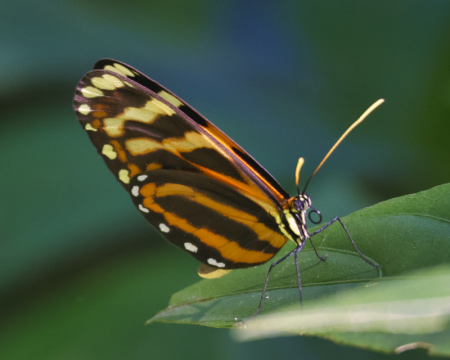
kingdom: Animalia
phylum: Arthropoda
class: Insecta
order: Lepidoptera
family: Nymphalidae
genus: Hypothyris
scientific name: Hypothyris lycaste
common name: Lycaste Tigerwing
